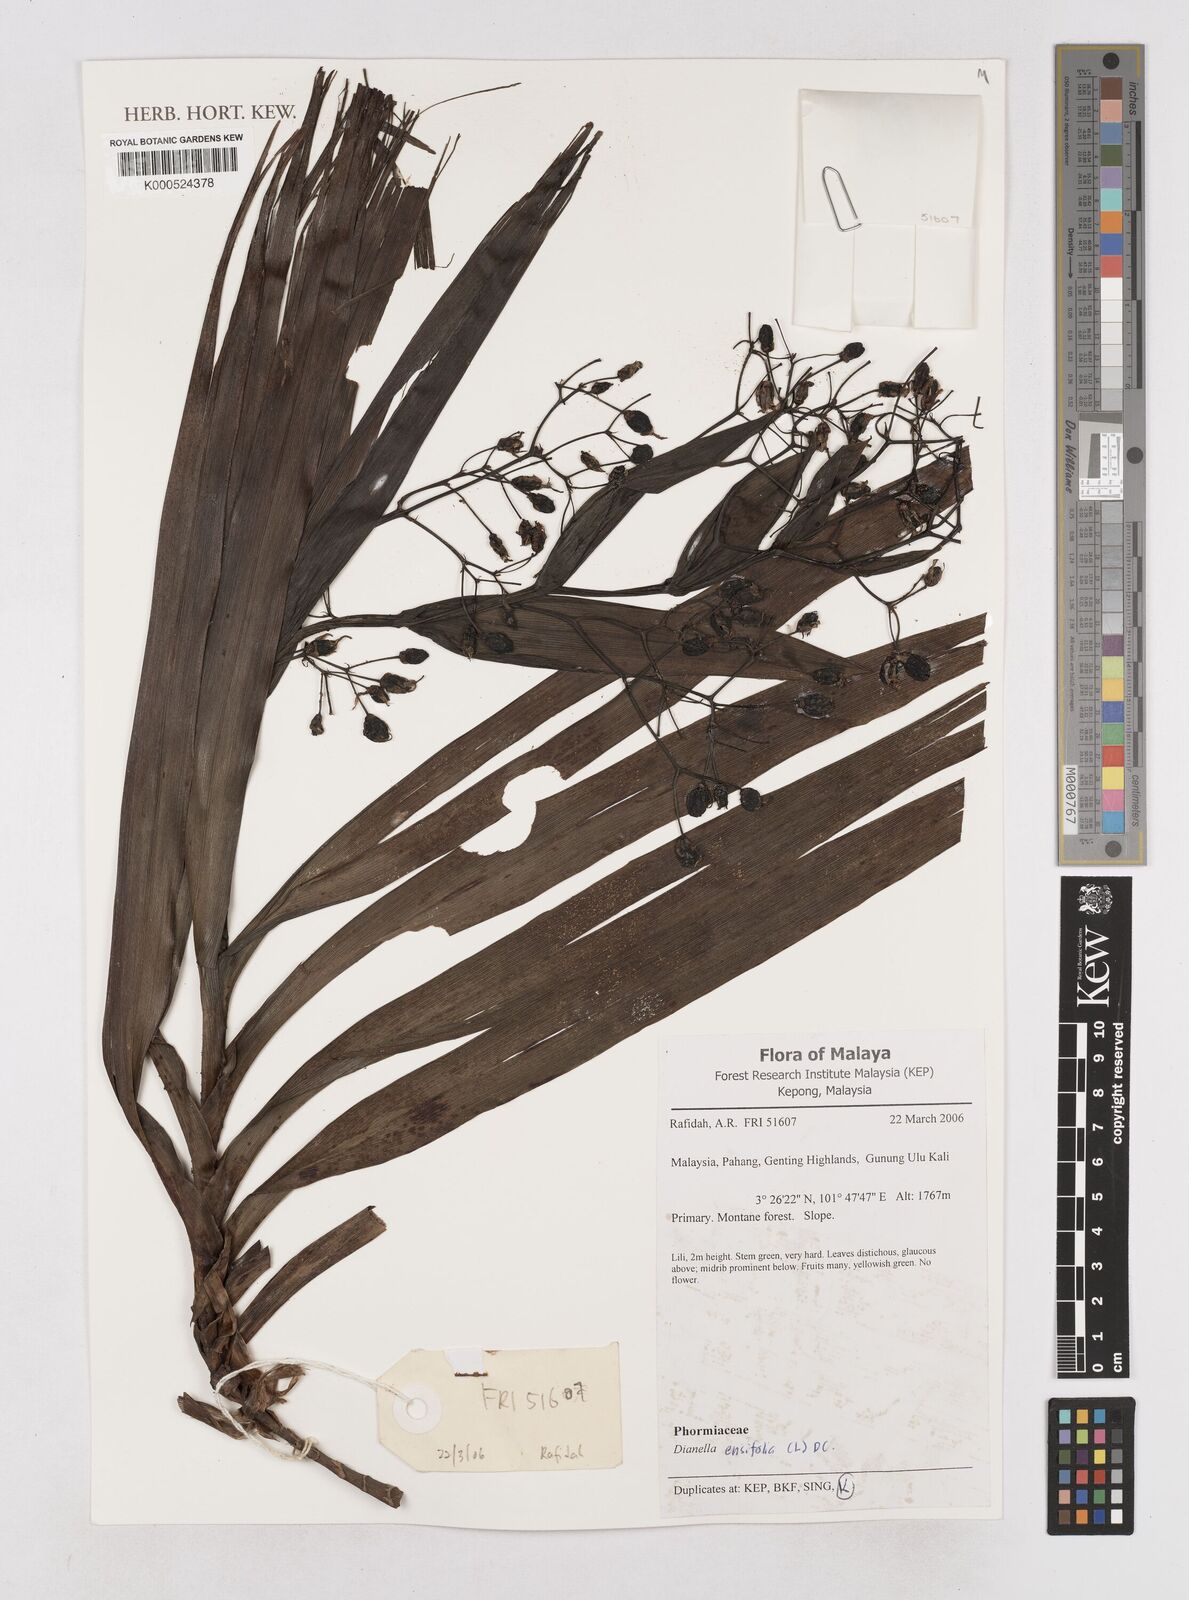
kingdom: Plantae
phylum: Tracheophyta
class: Liliopsida
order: Asparagales
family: Asphodelaceae
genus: Dianella
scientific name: Dianella
